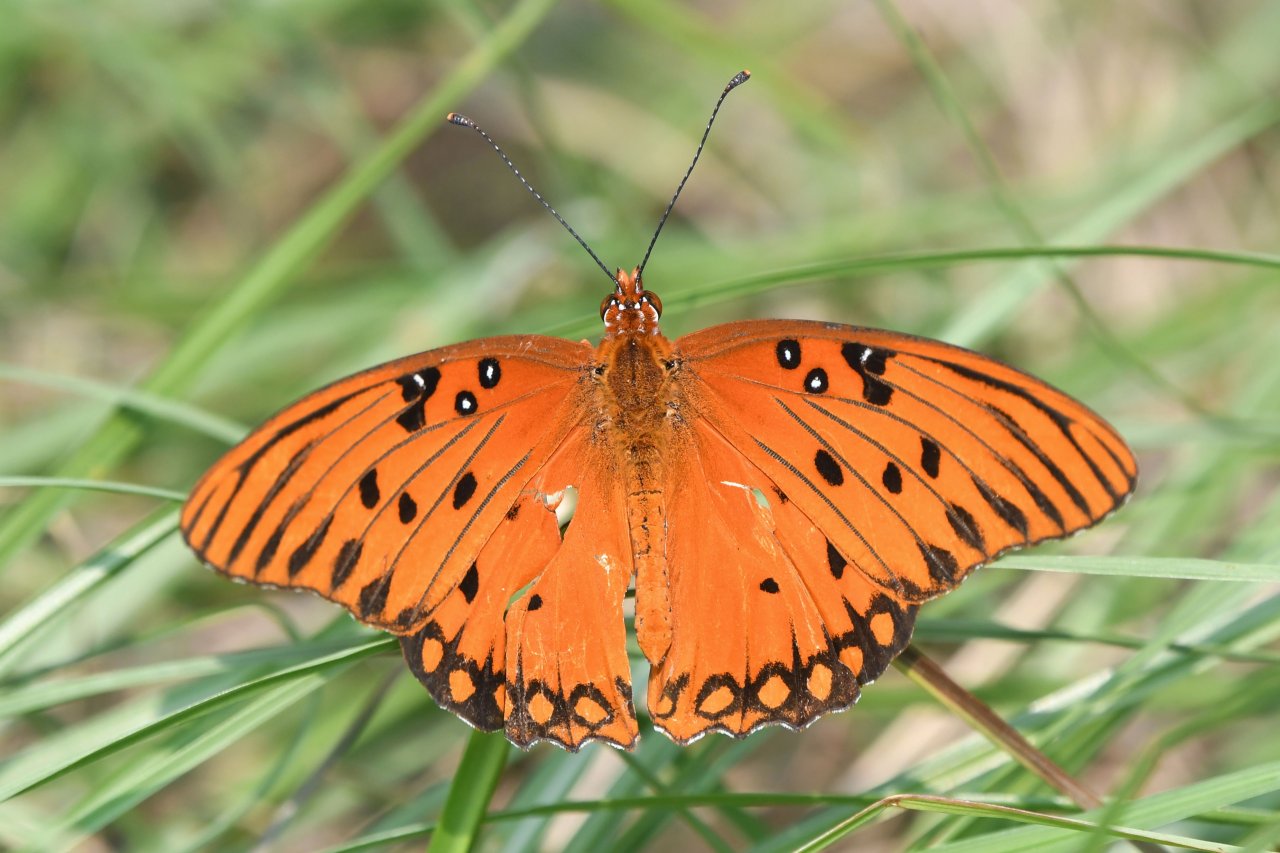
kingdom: Animalia
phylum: Arthropoda
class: Insecta
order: Lepidoptera
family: Nymphalidae
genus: Dione
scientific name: Dione vanillae
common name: Gulf Fritillary
